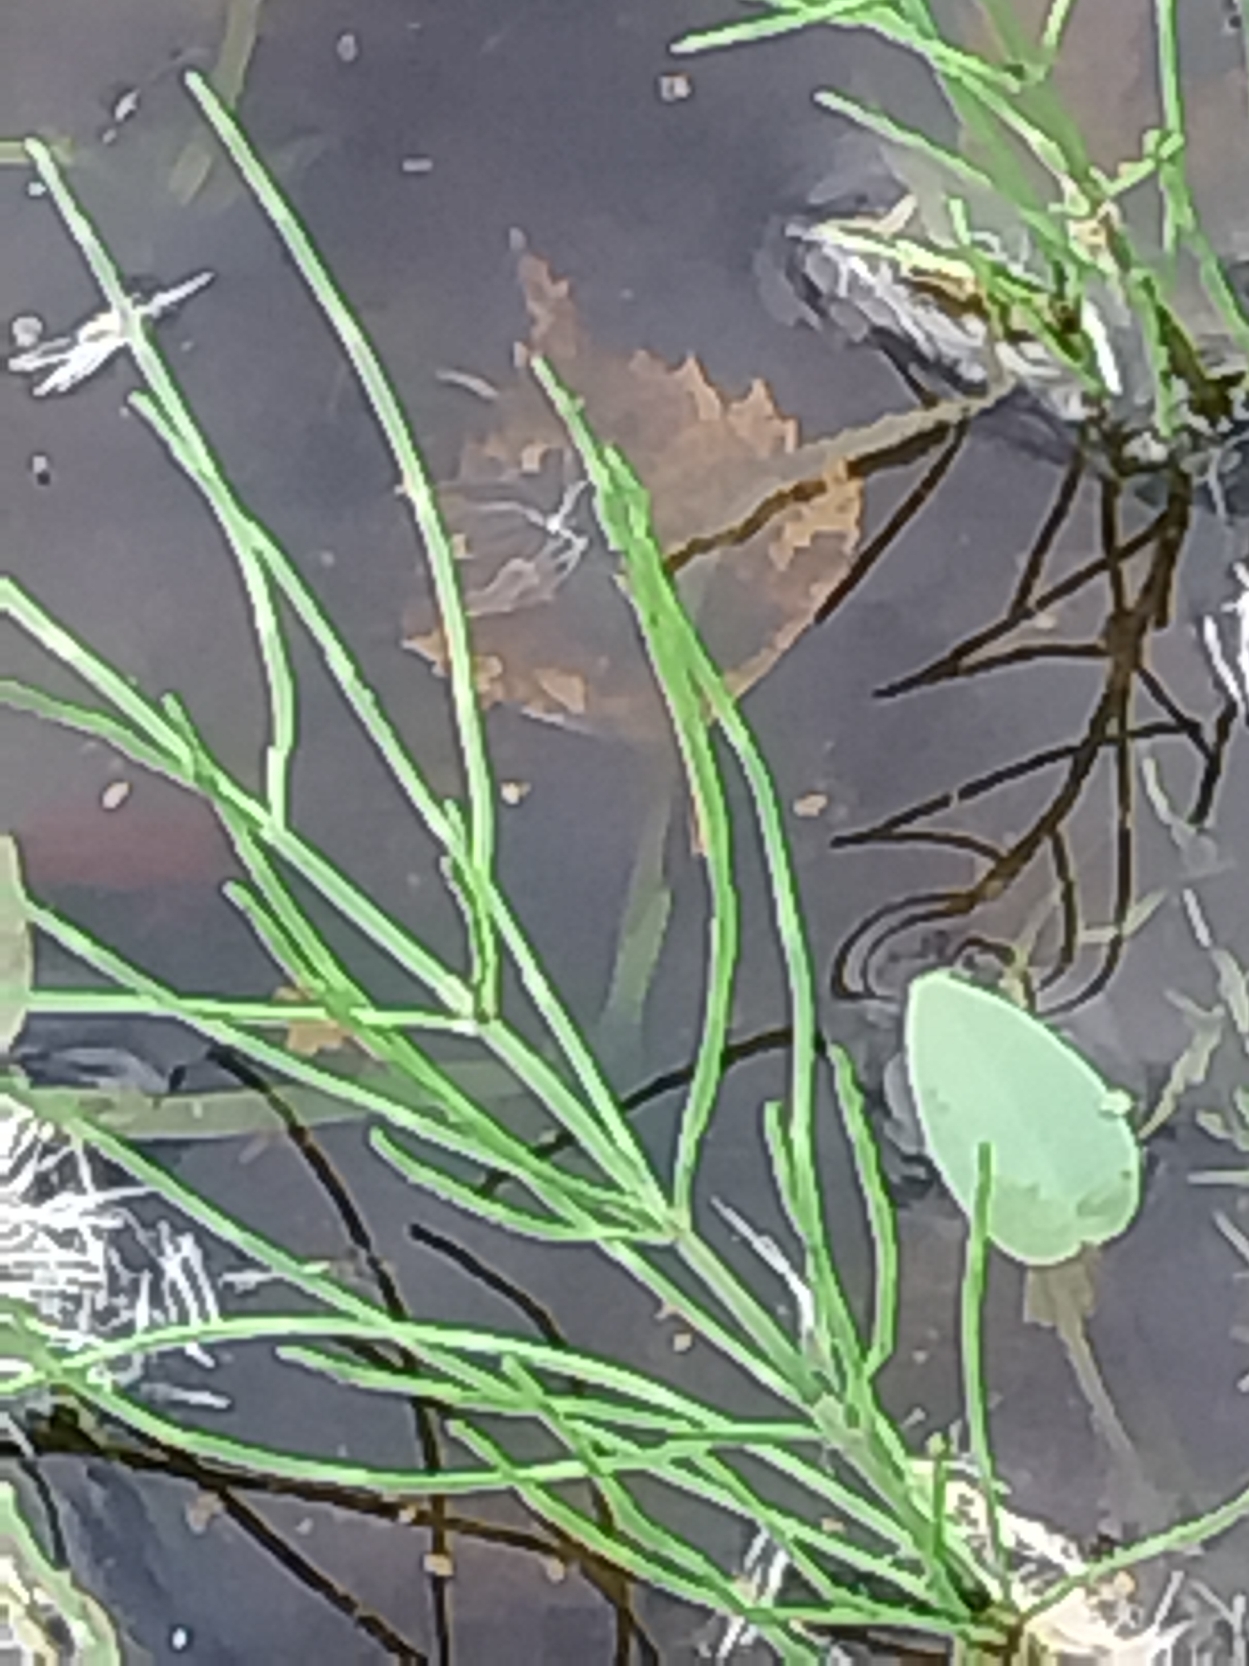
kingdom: Plantae
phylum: Tracheophyta
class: Polypodiopsida
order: Equisetales
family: Equisetaceae
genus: Equisetum
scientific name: Equisetum arvense
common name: Ager-padderok
